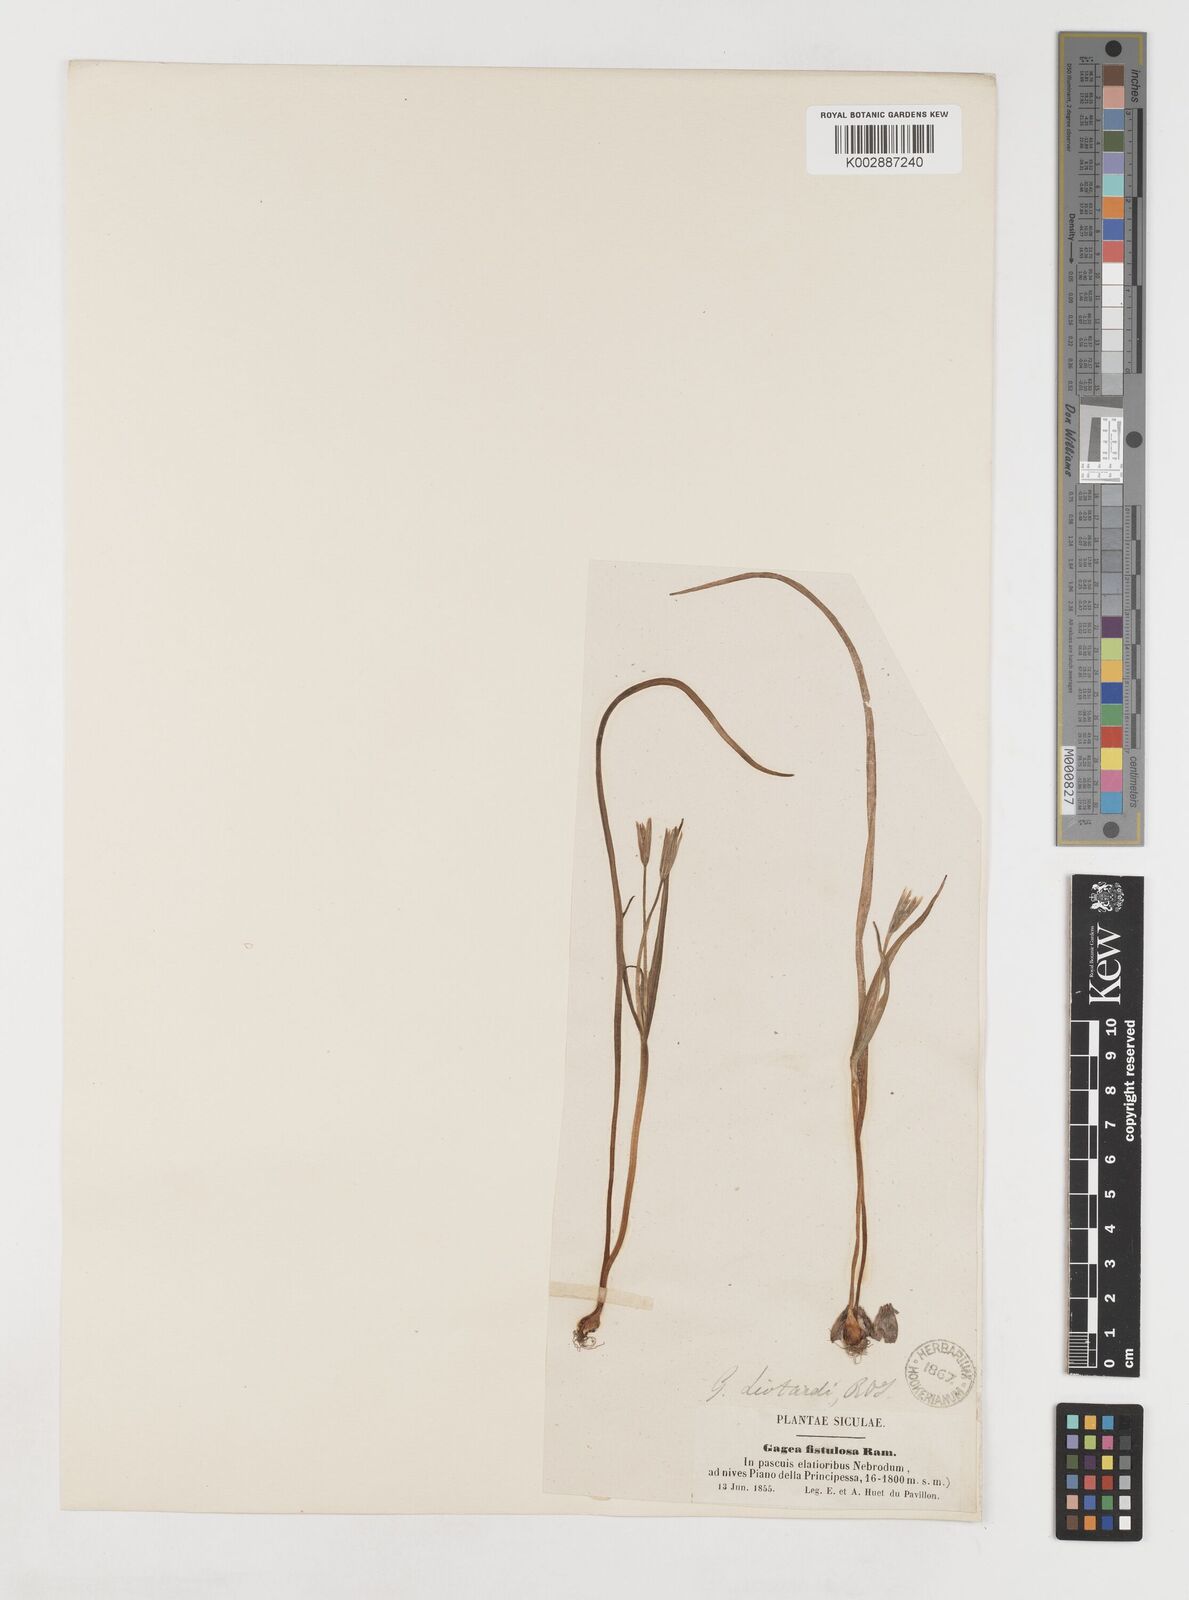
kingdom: Plantae
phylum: Tracheophyta
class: Liliopsida
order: Liliales
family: Liliaceae
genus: Gagea
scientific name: Gagea bohemica
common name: Early star-of-bethlehem
